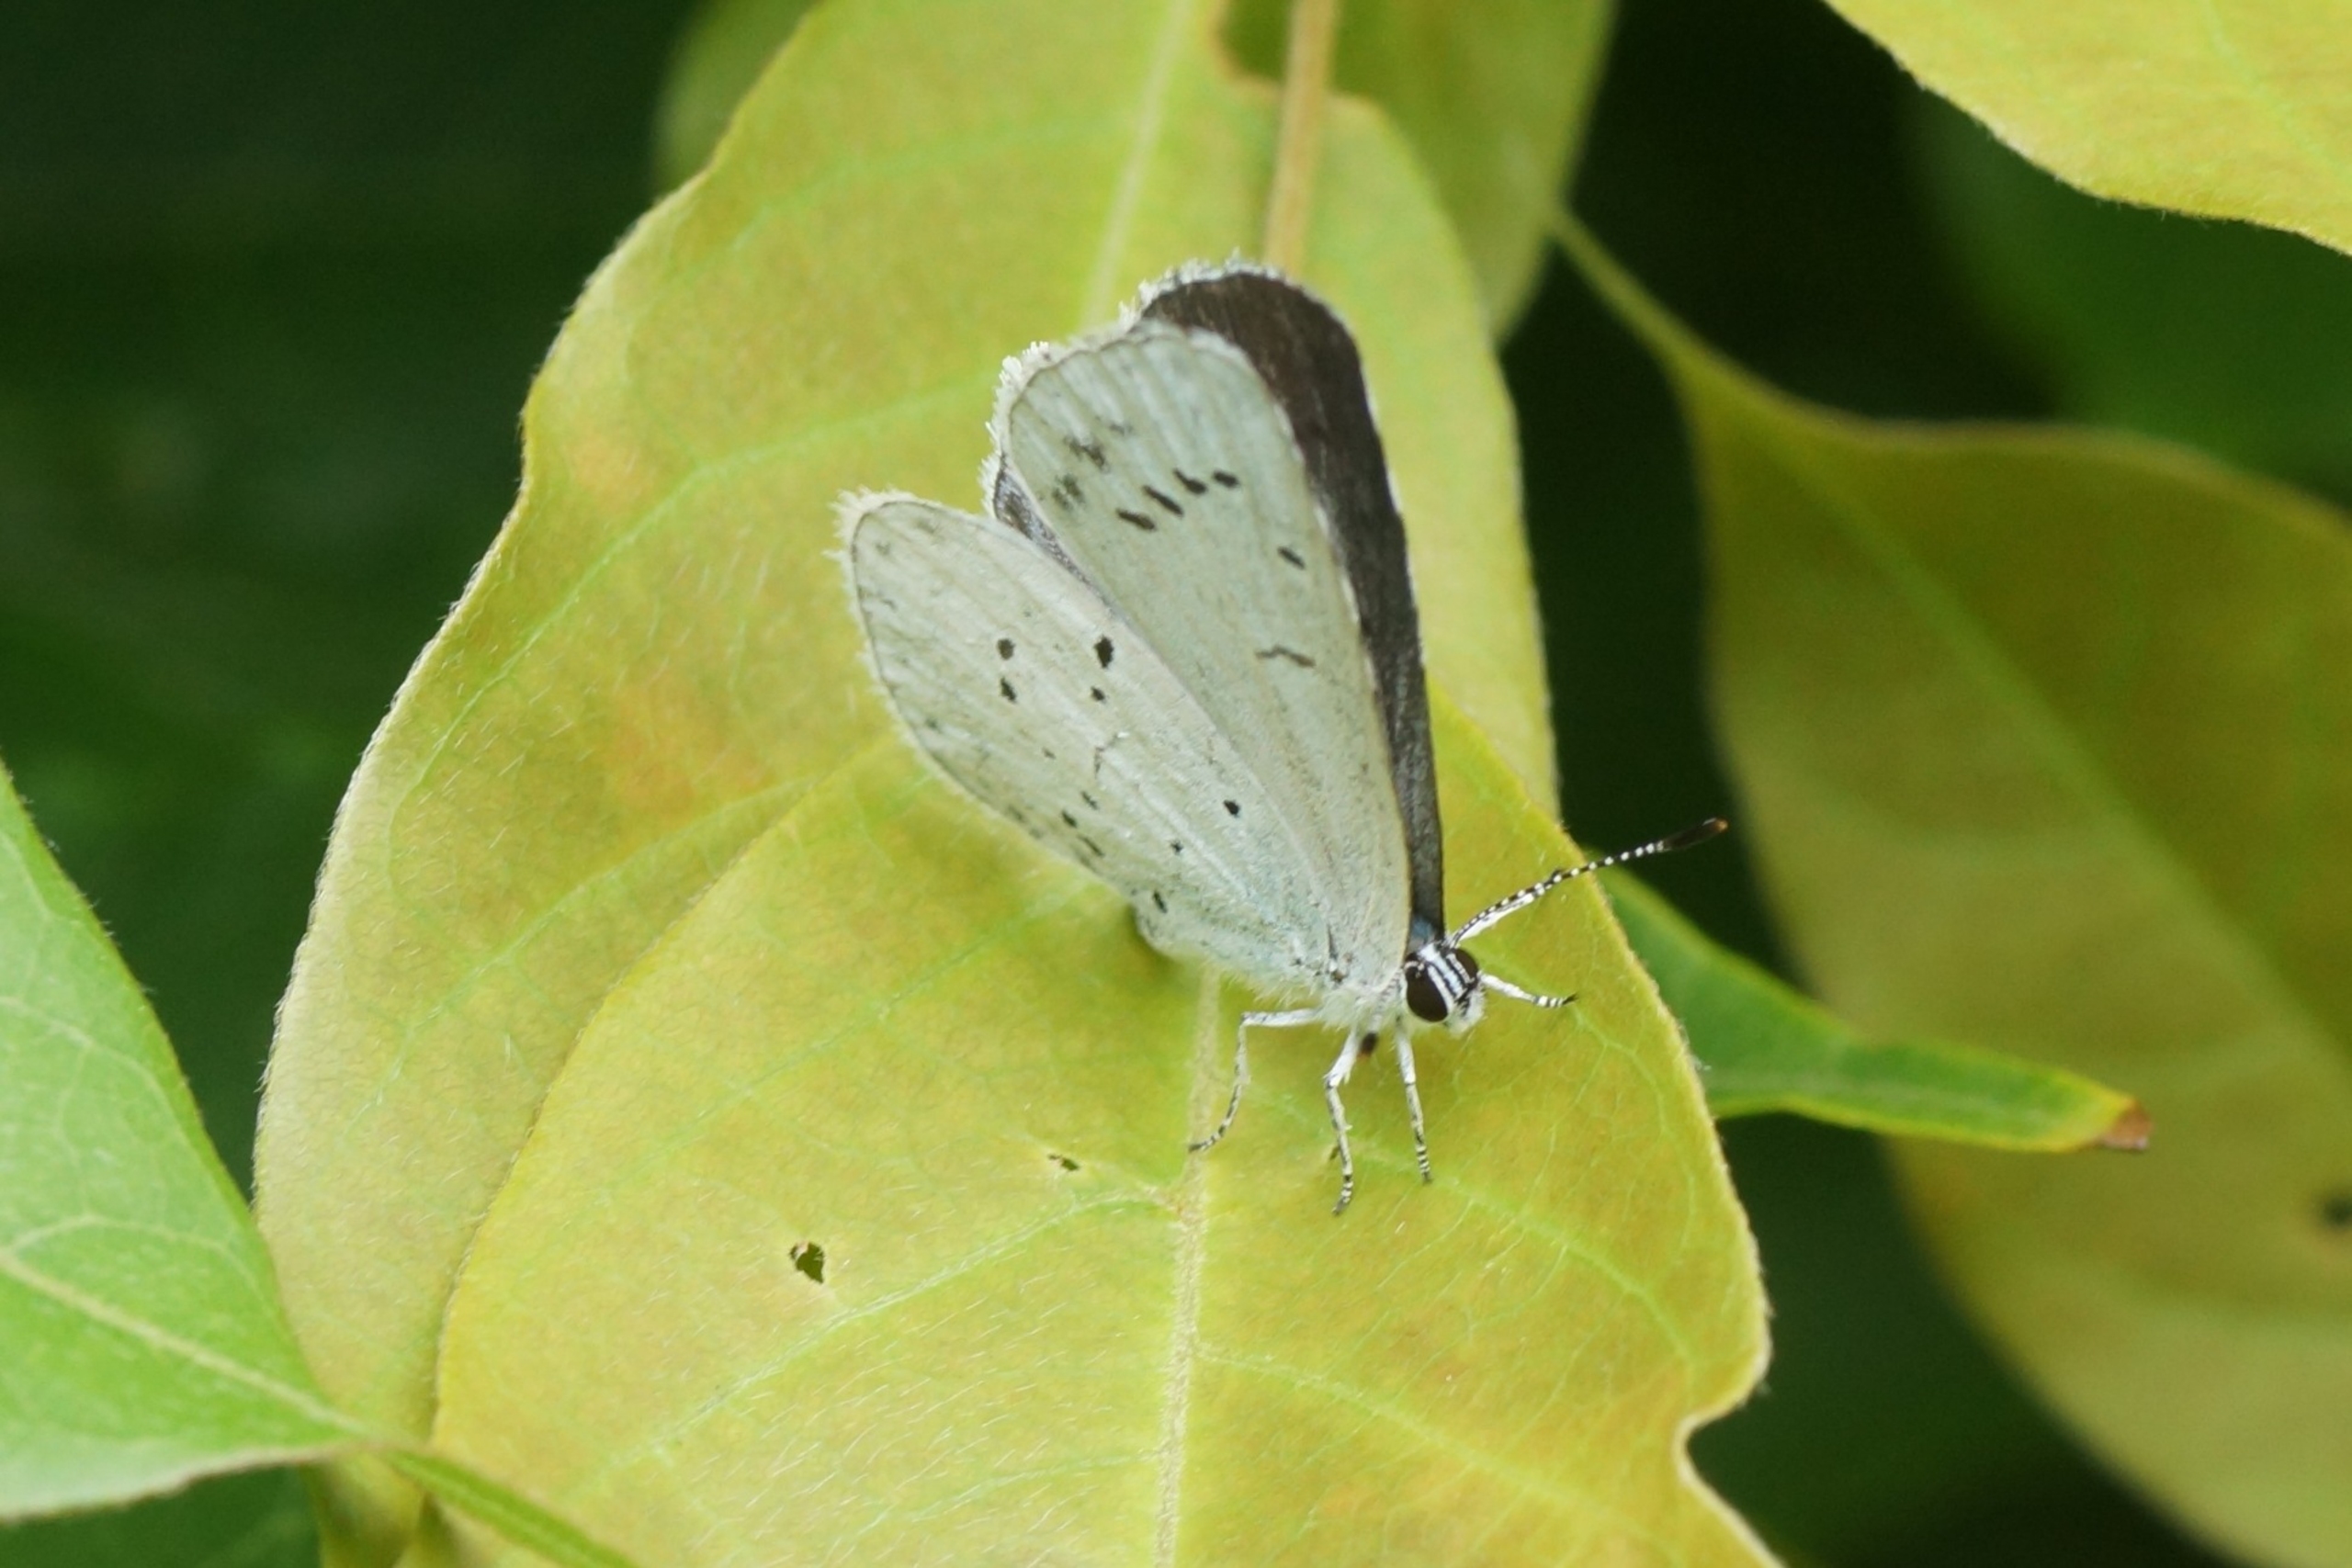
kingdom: Animalia
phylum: Arthropoda
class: Insecta
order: Lepidoptera
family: Lycaenidae
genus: Celastrina
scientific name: Celastrina argiolus
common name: Skovblåfugl
